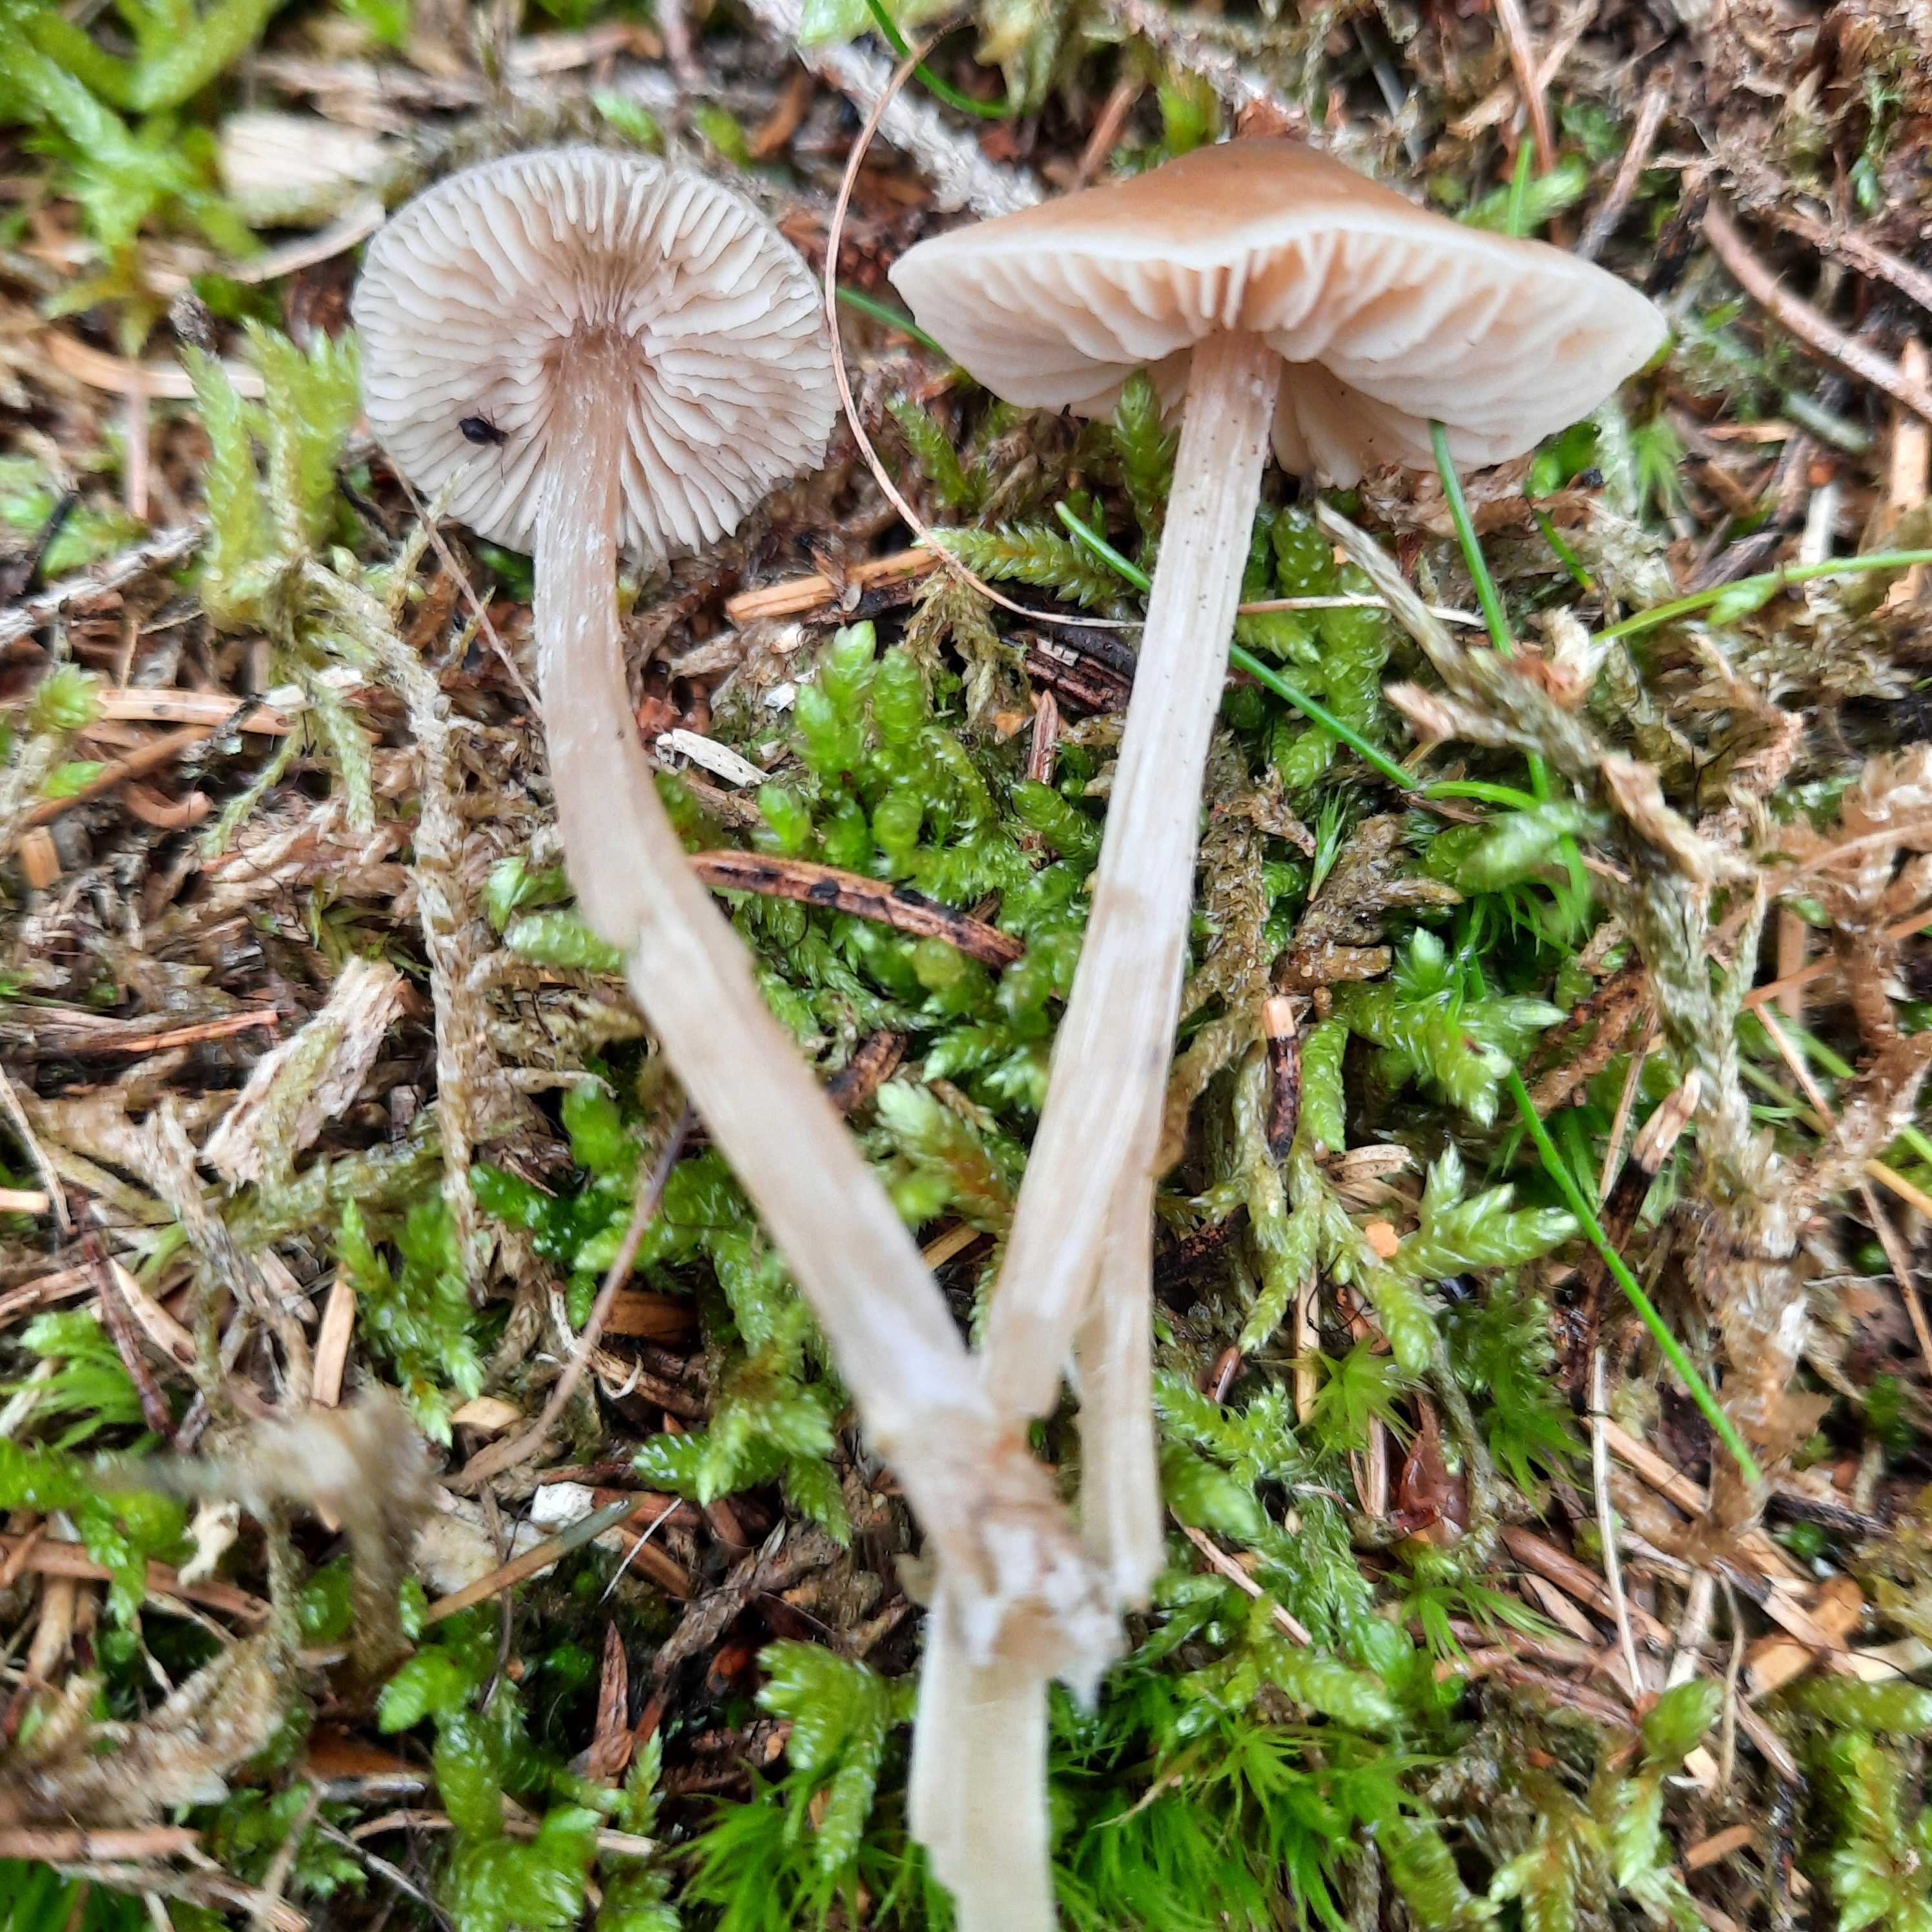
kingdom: Fungi
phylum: Basidiomycota
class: Agaricomycetes
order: Agaricales
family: Entolomataceae
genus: Entoloma
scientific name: Entoloma cetratum
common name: voks-rødblad
